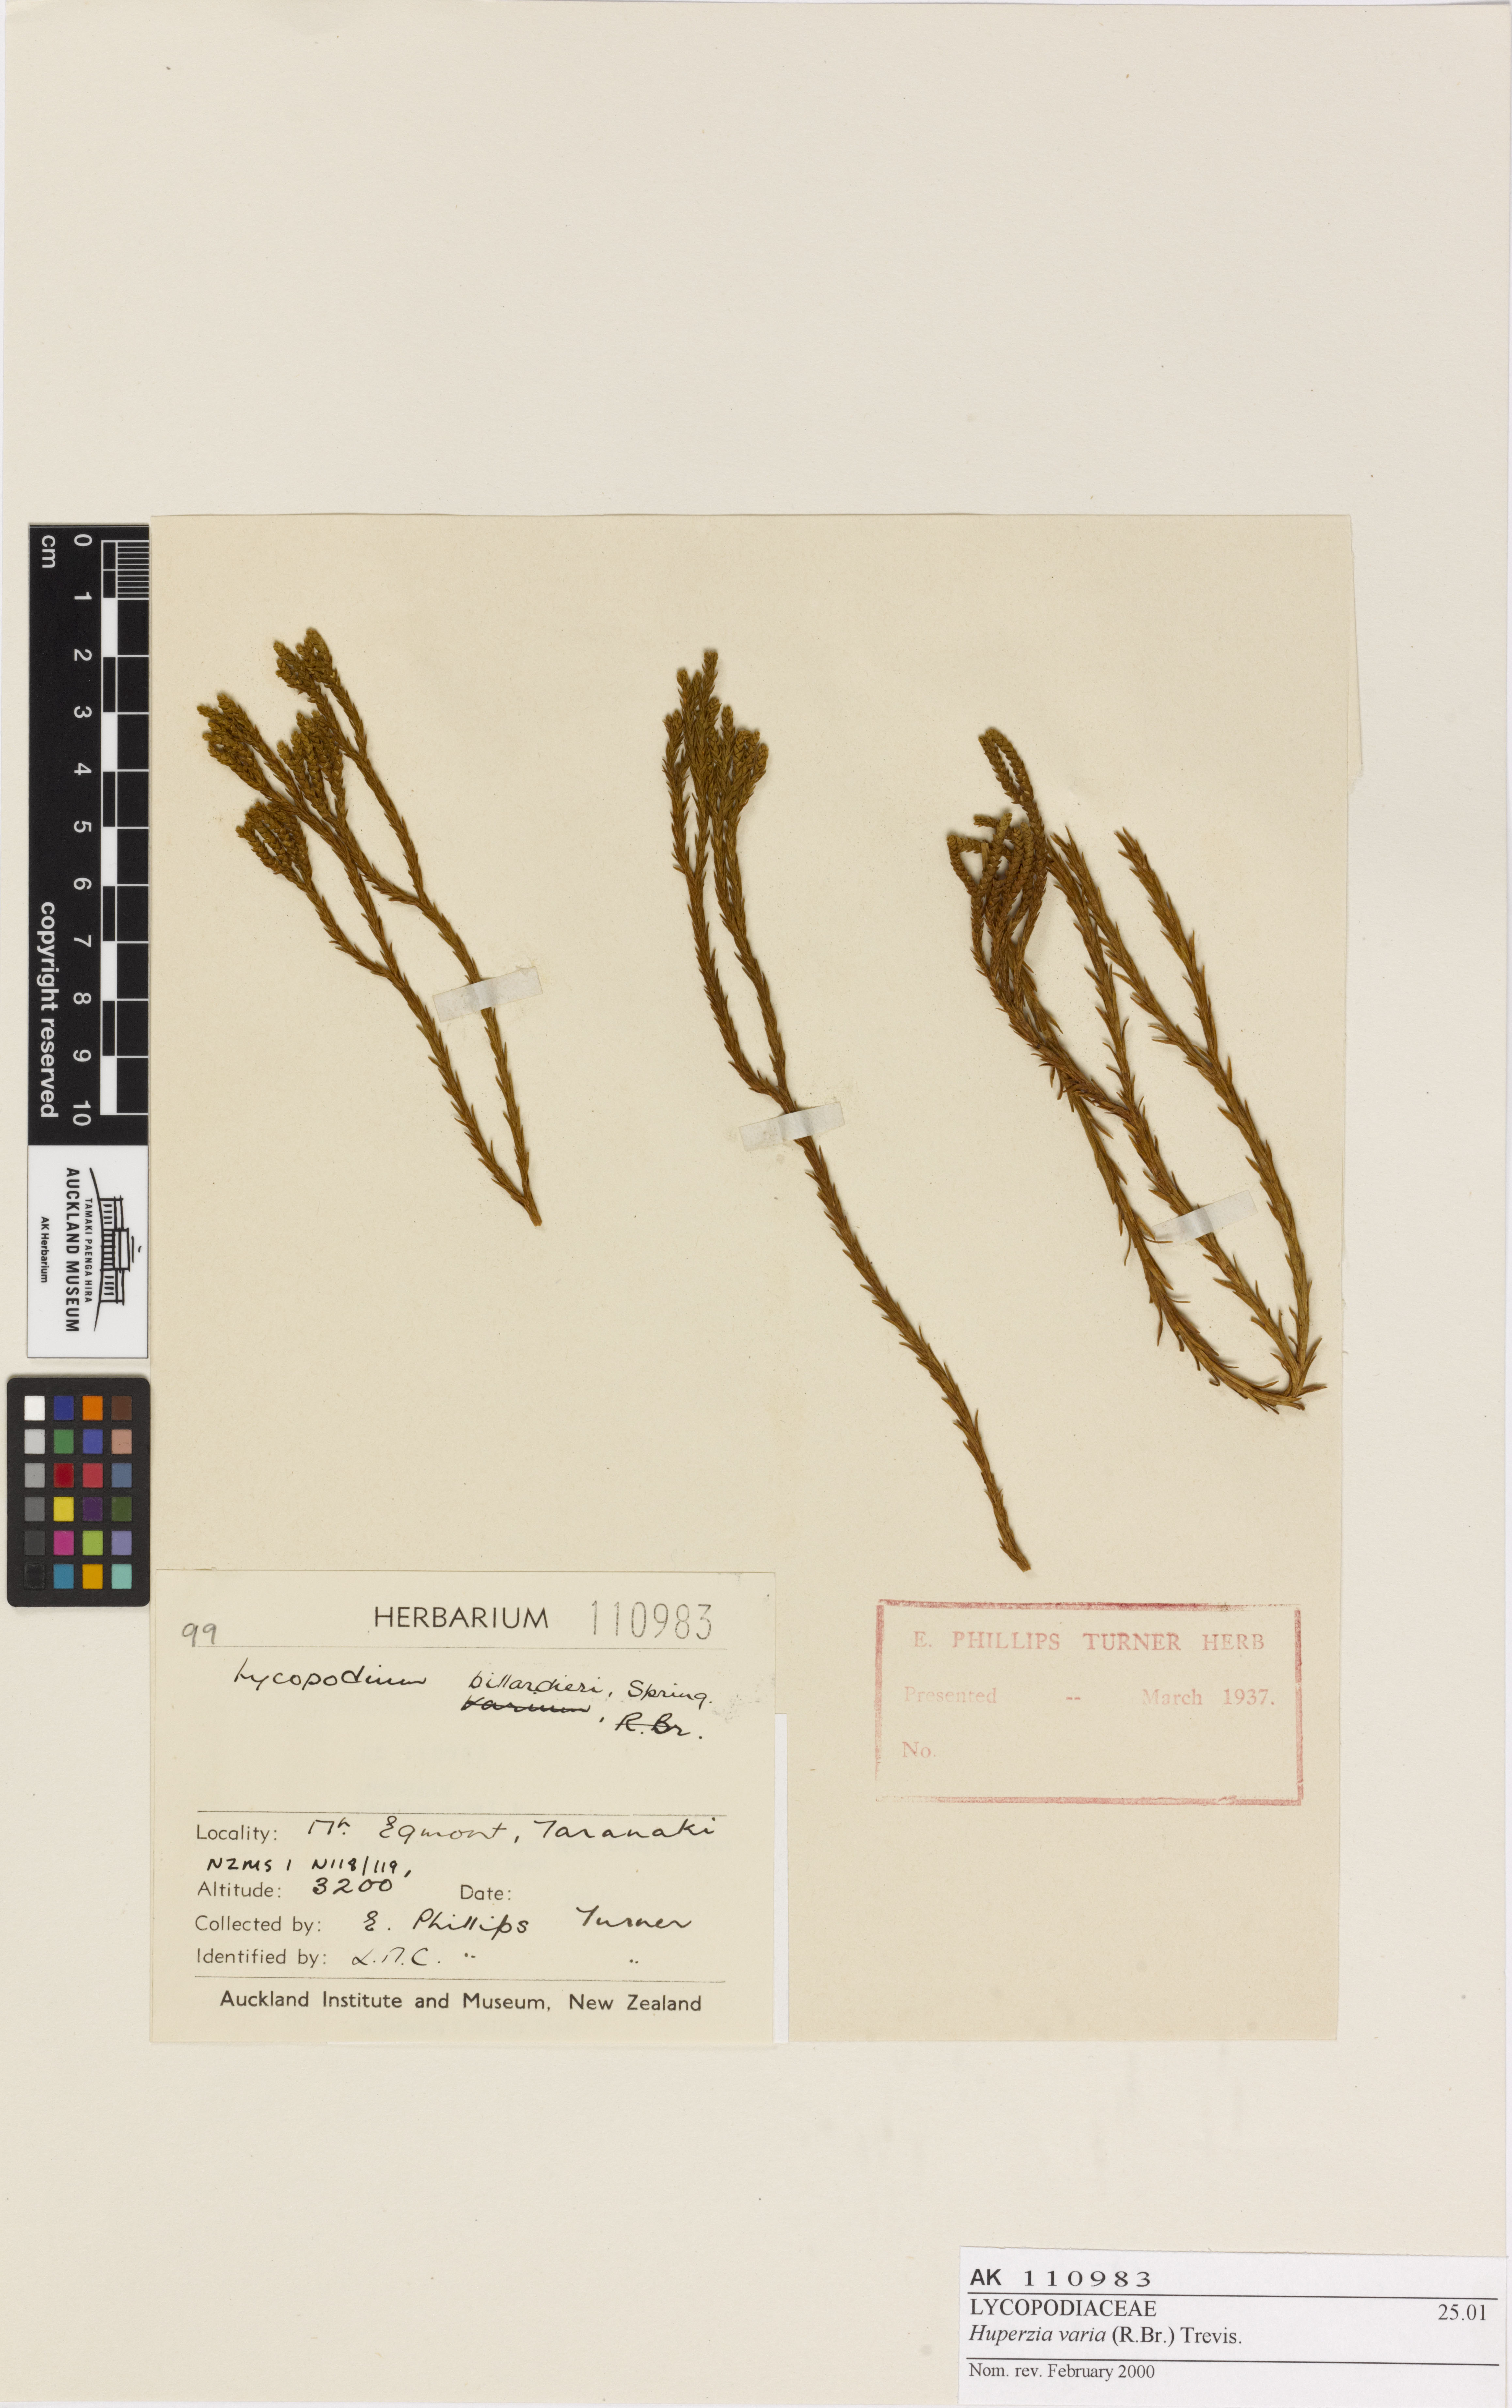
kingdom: Plantae
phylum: Tracheophyta
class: Lycopodiopsida
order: Lycopodiales
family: Lycopodiaceae
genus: Phlegmariurus
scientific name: Phlegmariurus billardierei
